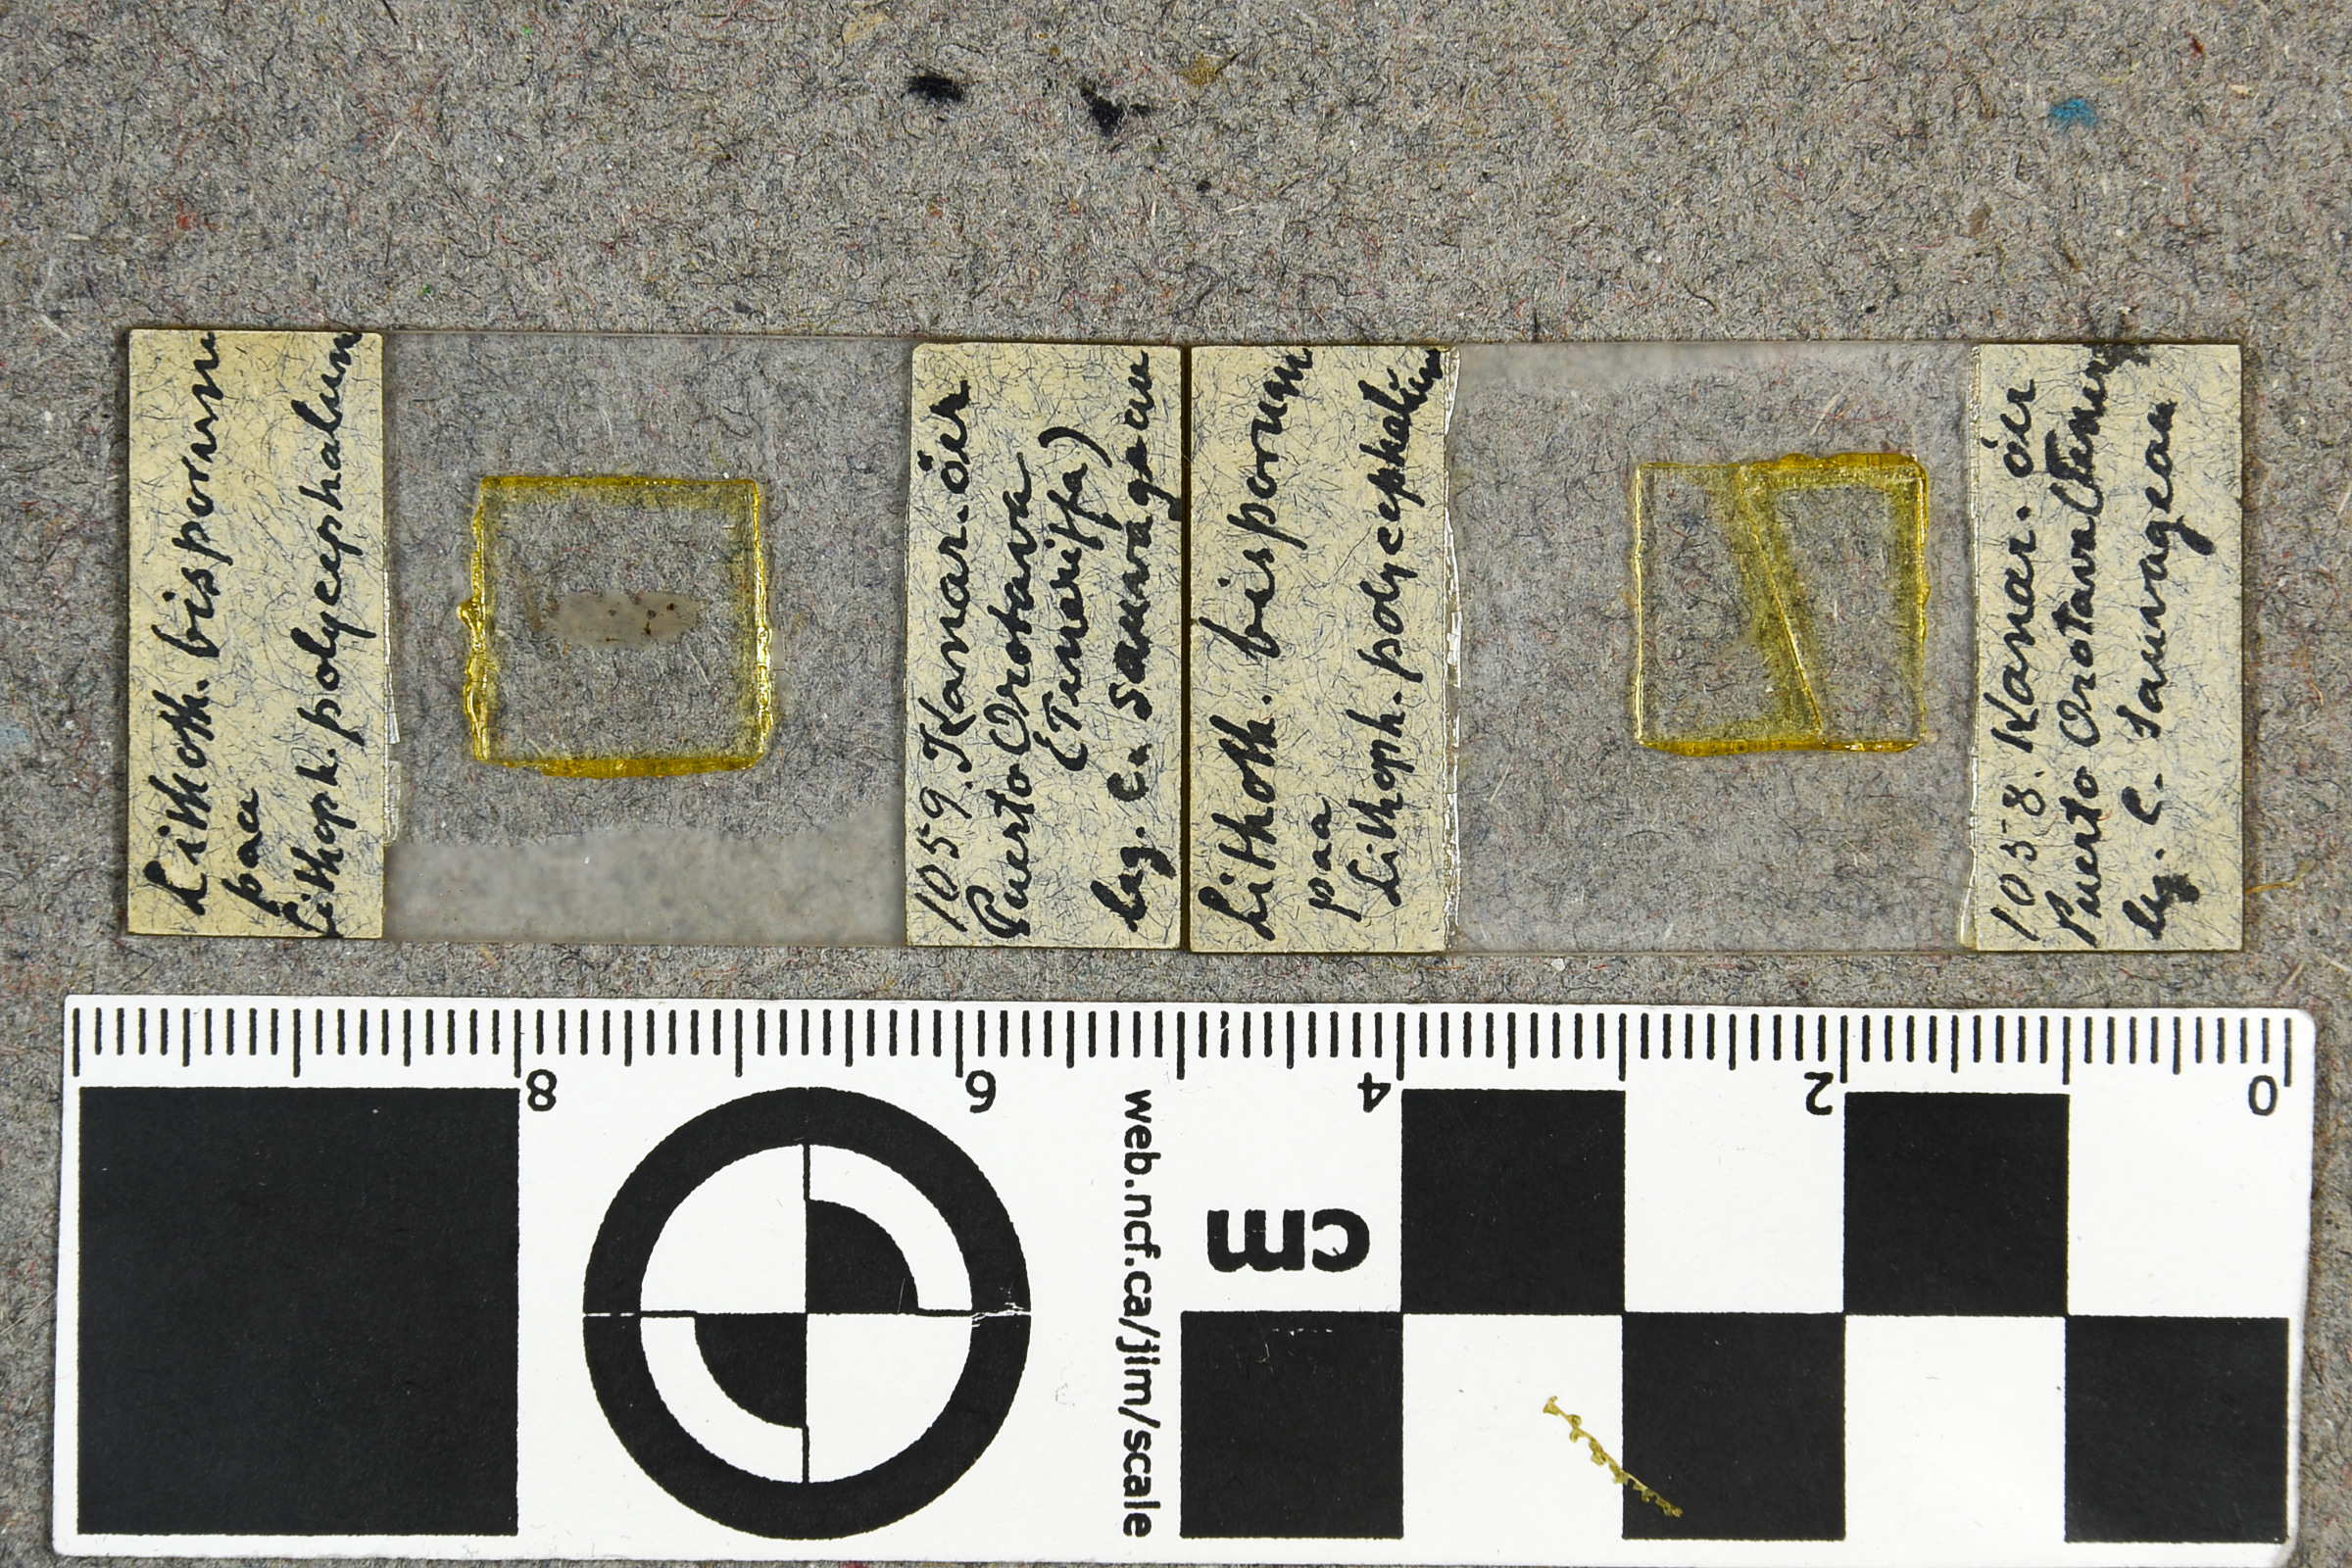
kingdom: Plantae
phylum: Rhodophyta
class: Florideophyceae
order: Corallinales
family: Mesophyllumaceae
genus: Leptophytum
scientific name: Leptophytum bisporum
